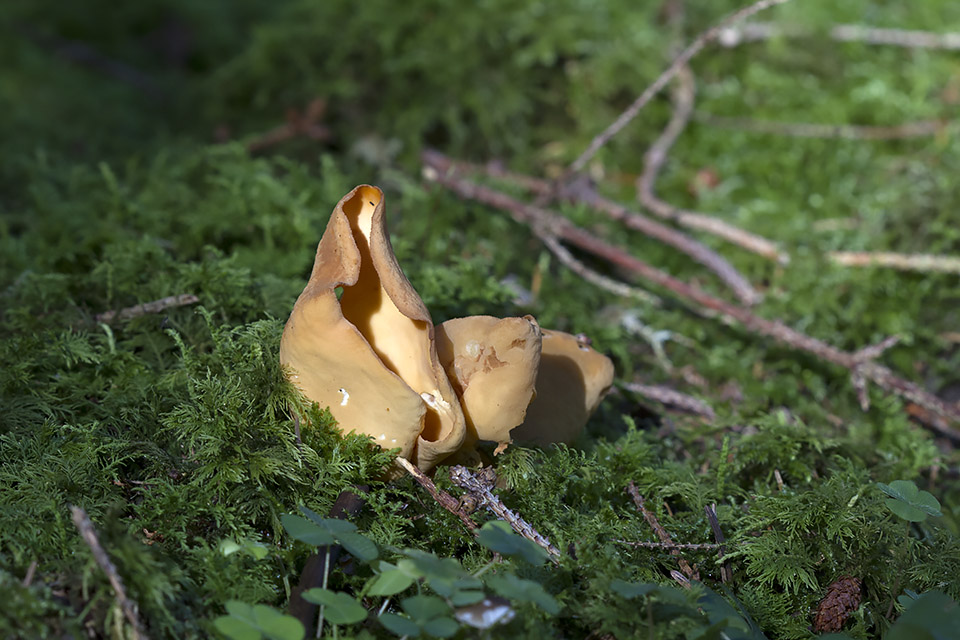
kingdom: Fungi
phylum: Ascomycota
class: Pezizomycetes
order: Pezizales
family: Otideaceae
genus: Otidea
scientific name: Otidea onotica
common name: æsel-ørebæger
